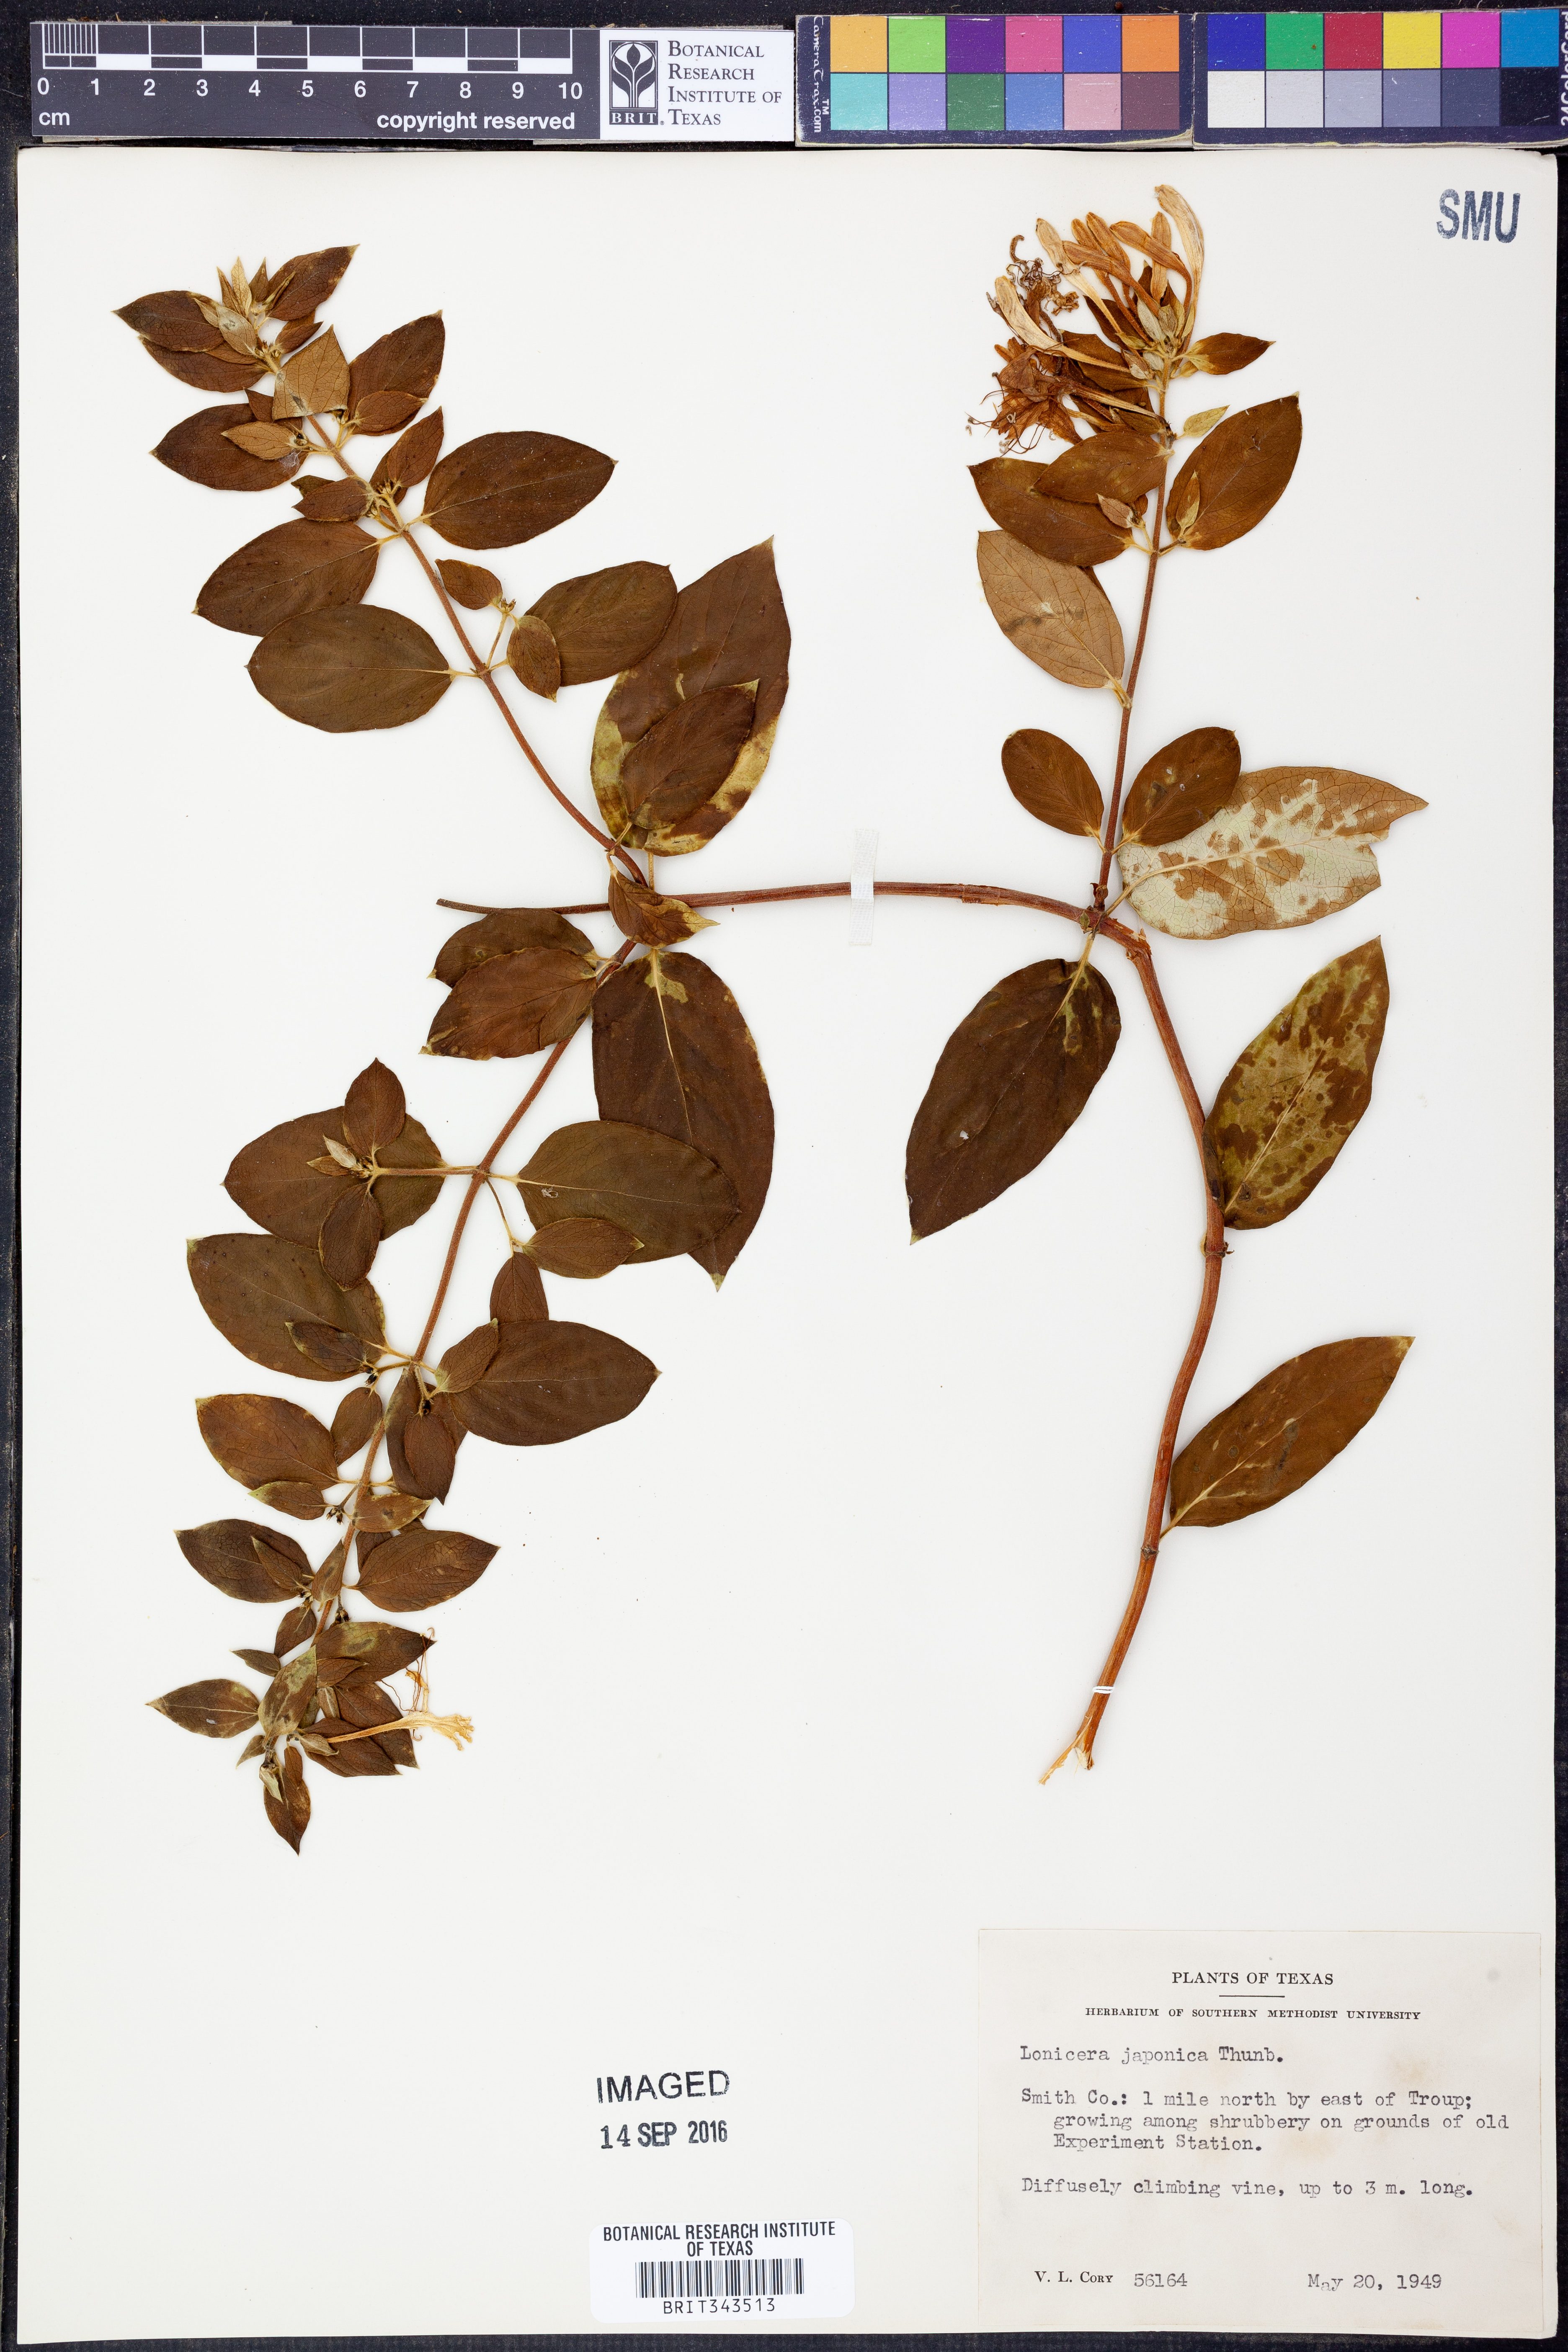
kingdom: Plantae
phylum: Tracheophyta
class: Magnoliopsida
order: Dipsacales
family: Caprifoliaceae
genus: Lonicera
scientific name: Lonicera japonica
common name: Japanese honeysuckle
